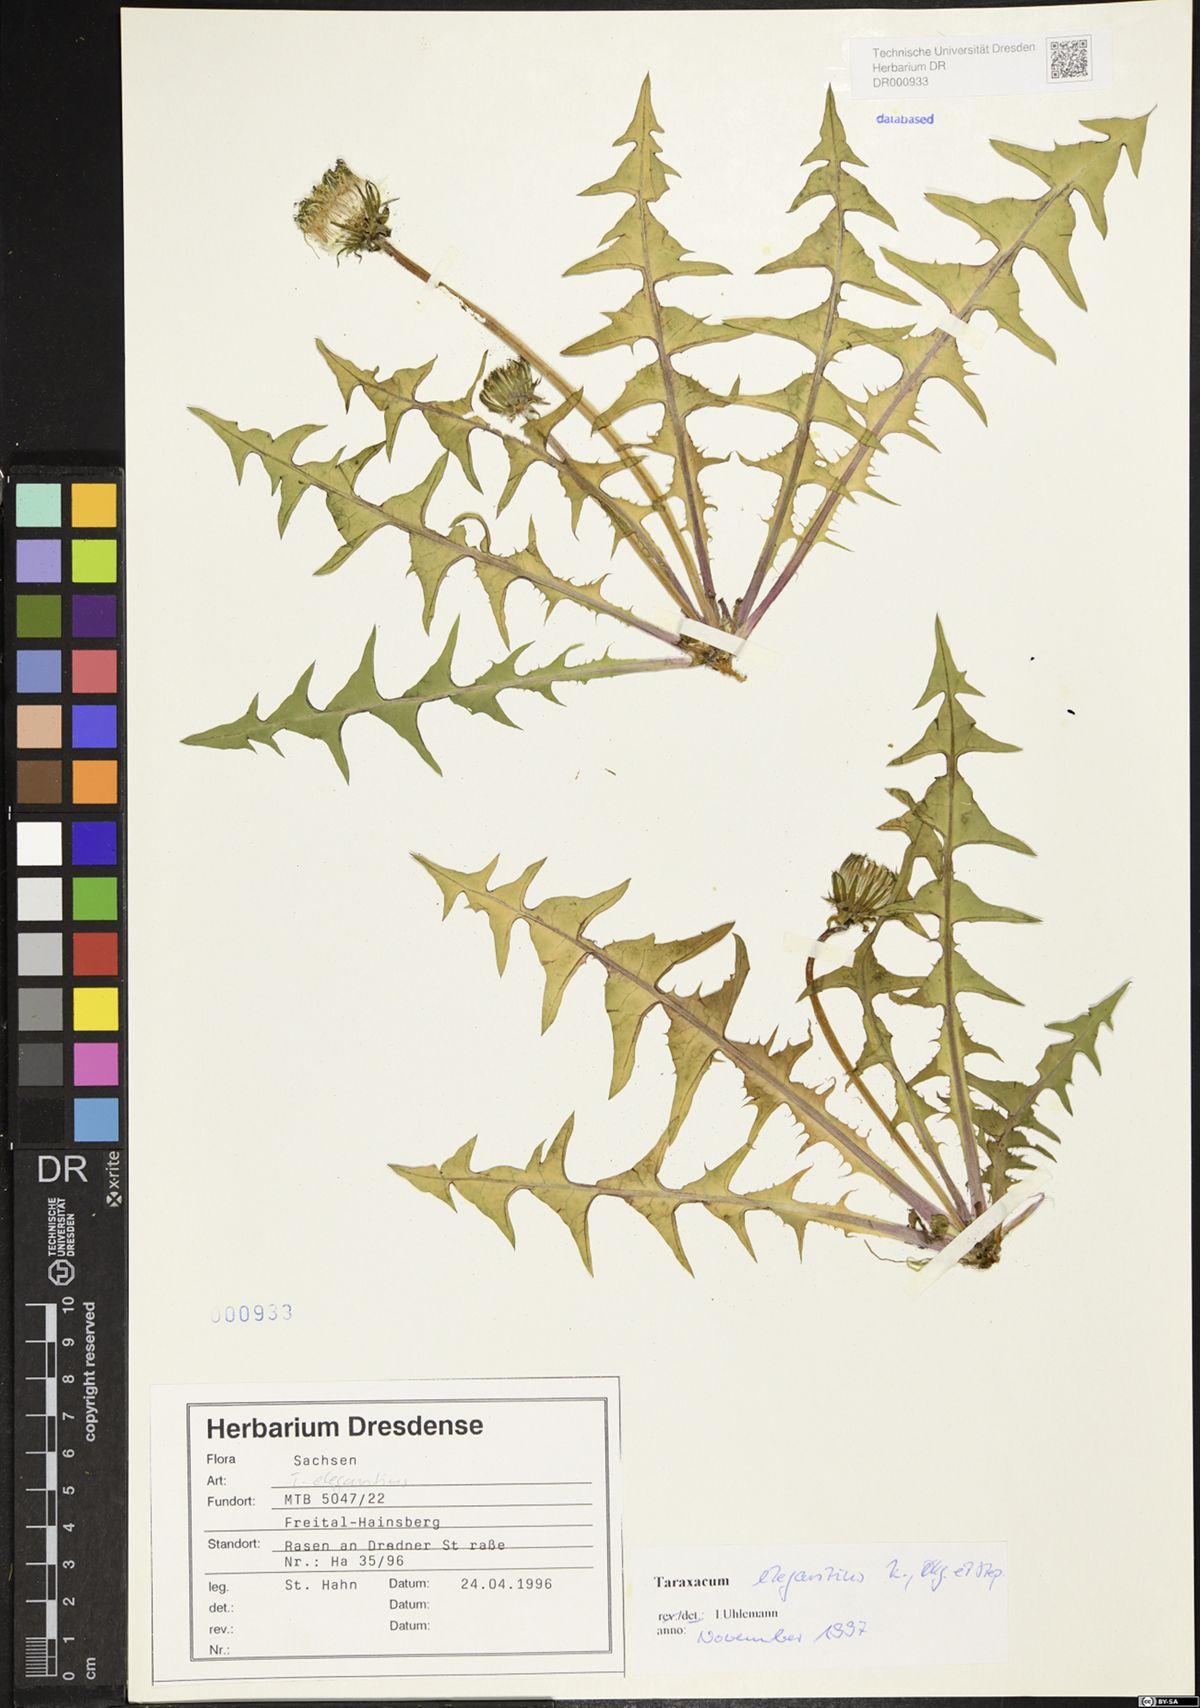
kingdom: Plantae
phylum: Tracheophyta
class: Magnoliopsida
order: Asterales
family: Asteraceae
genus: Taraxacum
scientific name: Taraxacum elegantius
